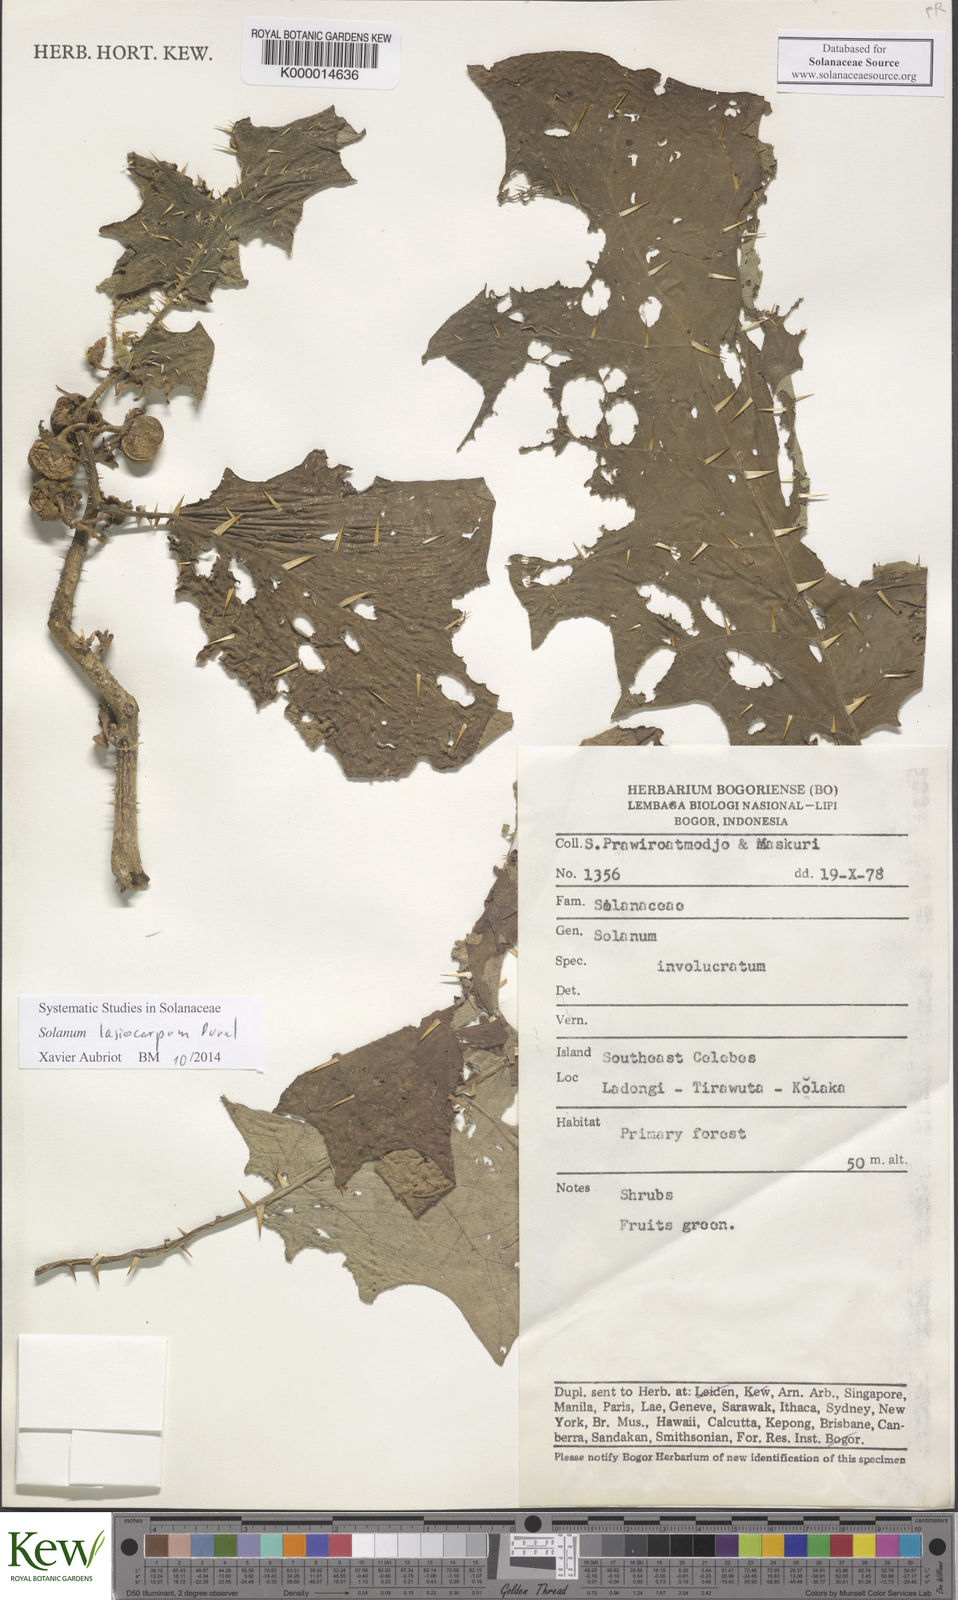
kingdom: Plantae
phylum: Tracheophyta
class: Magnoliopsida
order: Solanales
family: Solanaceae
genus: Solanum
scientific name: Solanum lasiocarpum
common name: Indian nightshade
